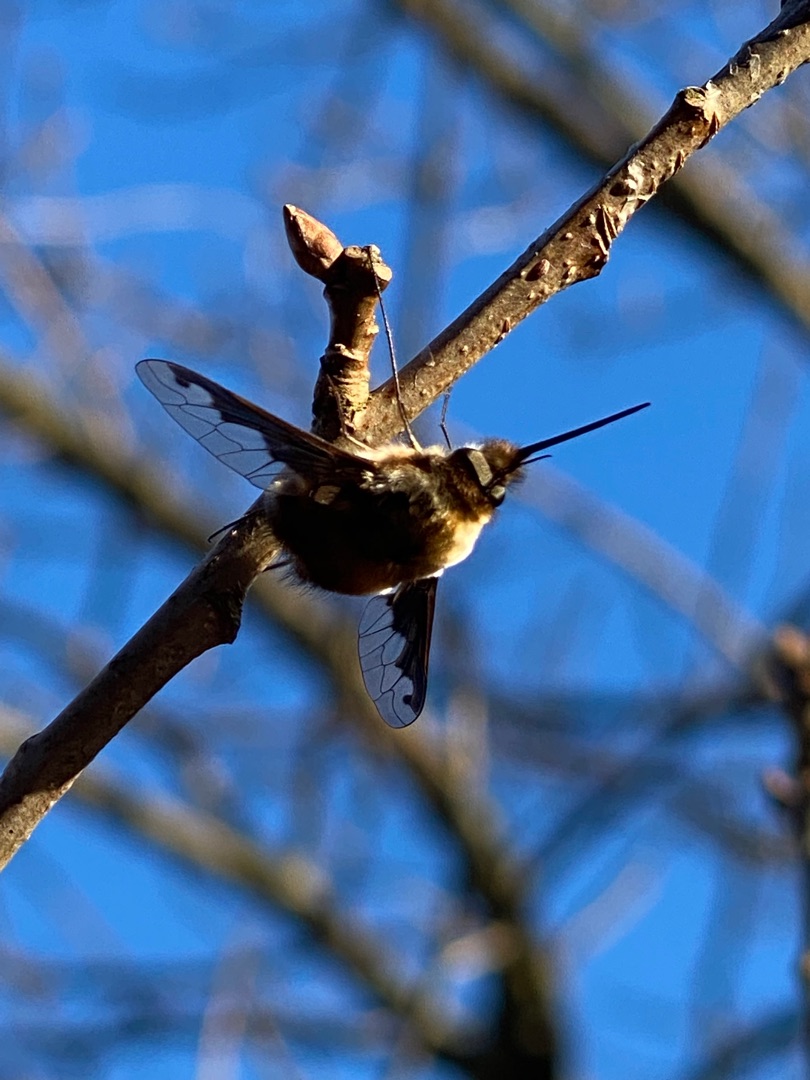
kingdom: Animalia
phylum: Arthropoda
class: Insecta
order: Diptera
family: Bombyliidae
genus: Bombylius
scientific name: Bombylius major
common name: Stor humleflue
